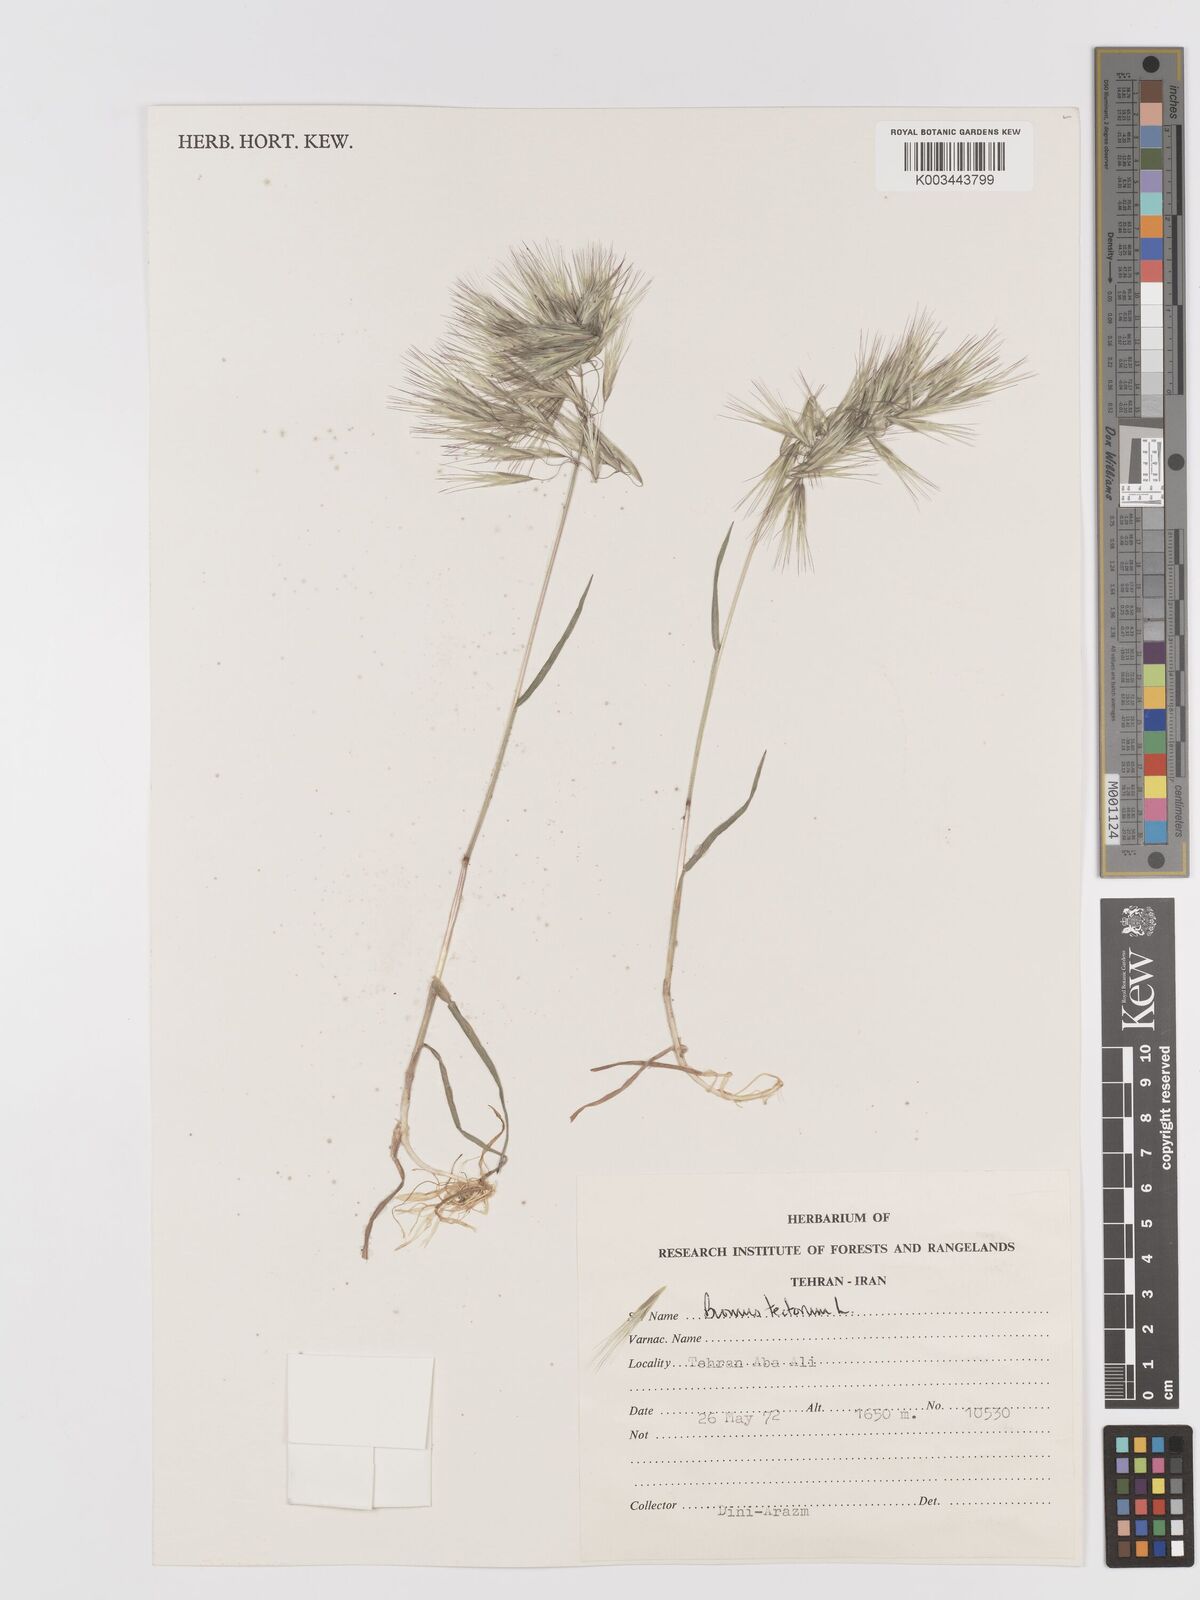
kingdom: Plantae
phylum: Tracheophyta
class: Liliopsida
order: Poales
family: Poaceae
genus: Bromus
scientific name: Bromus tectorum
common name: Cheatgrass
